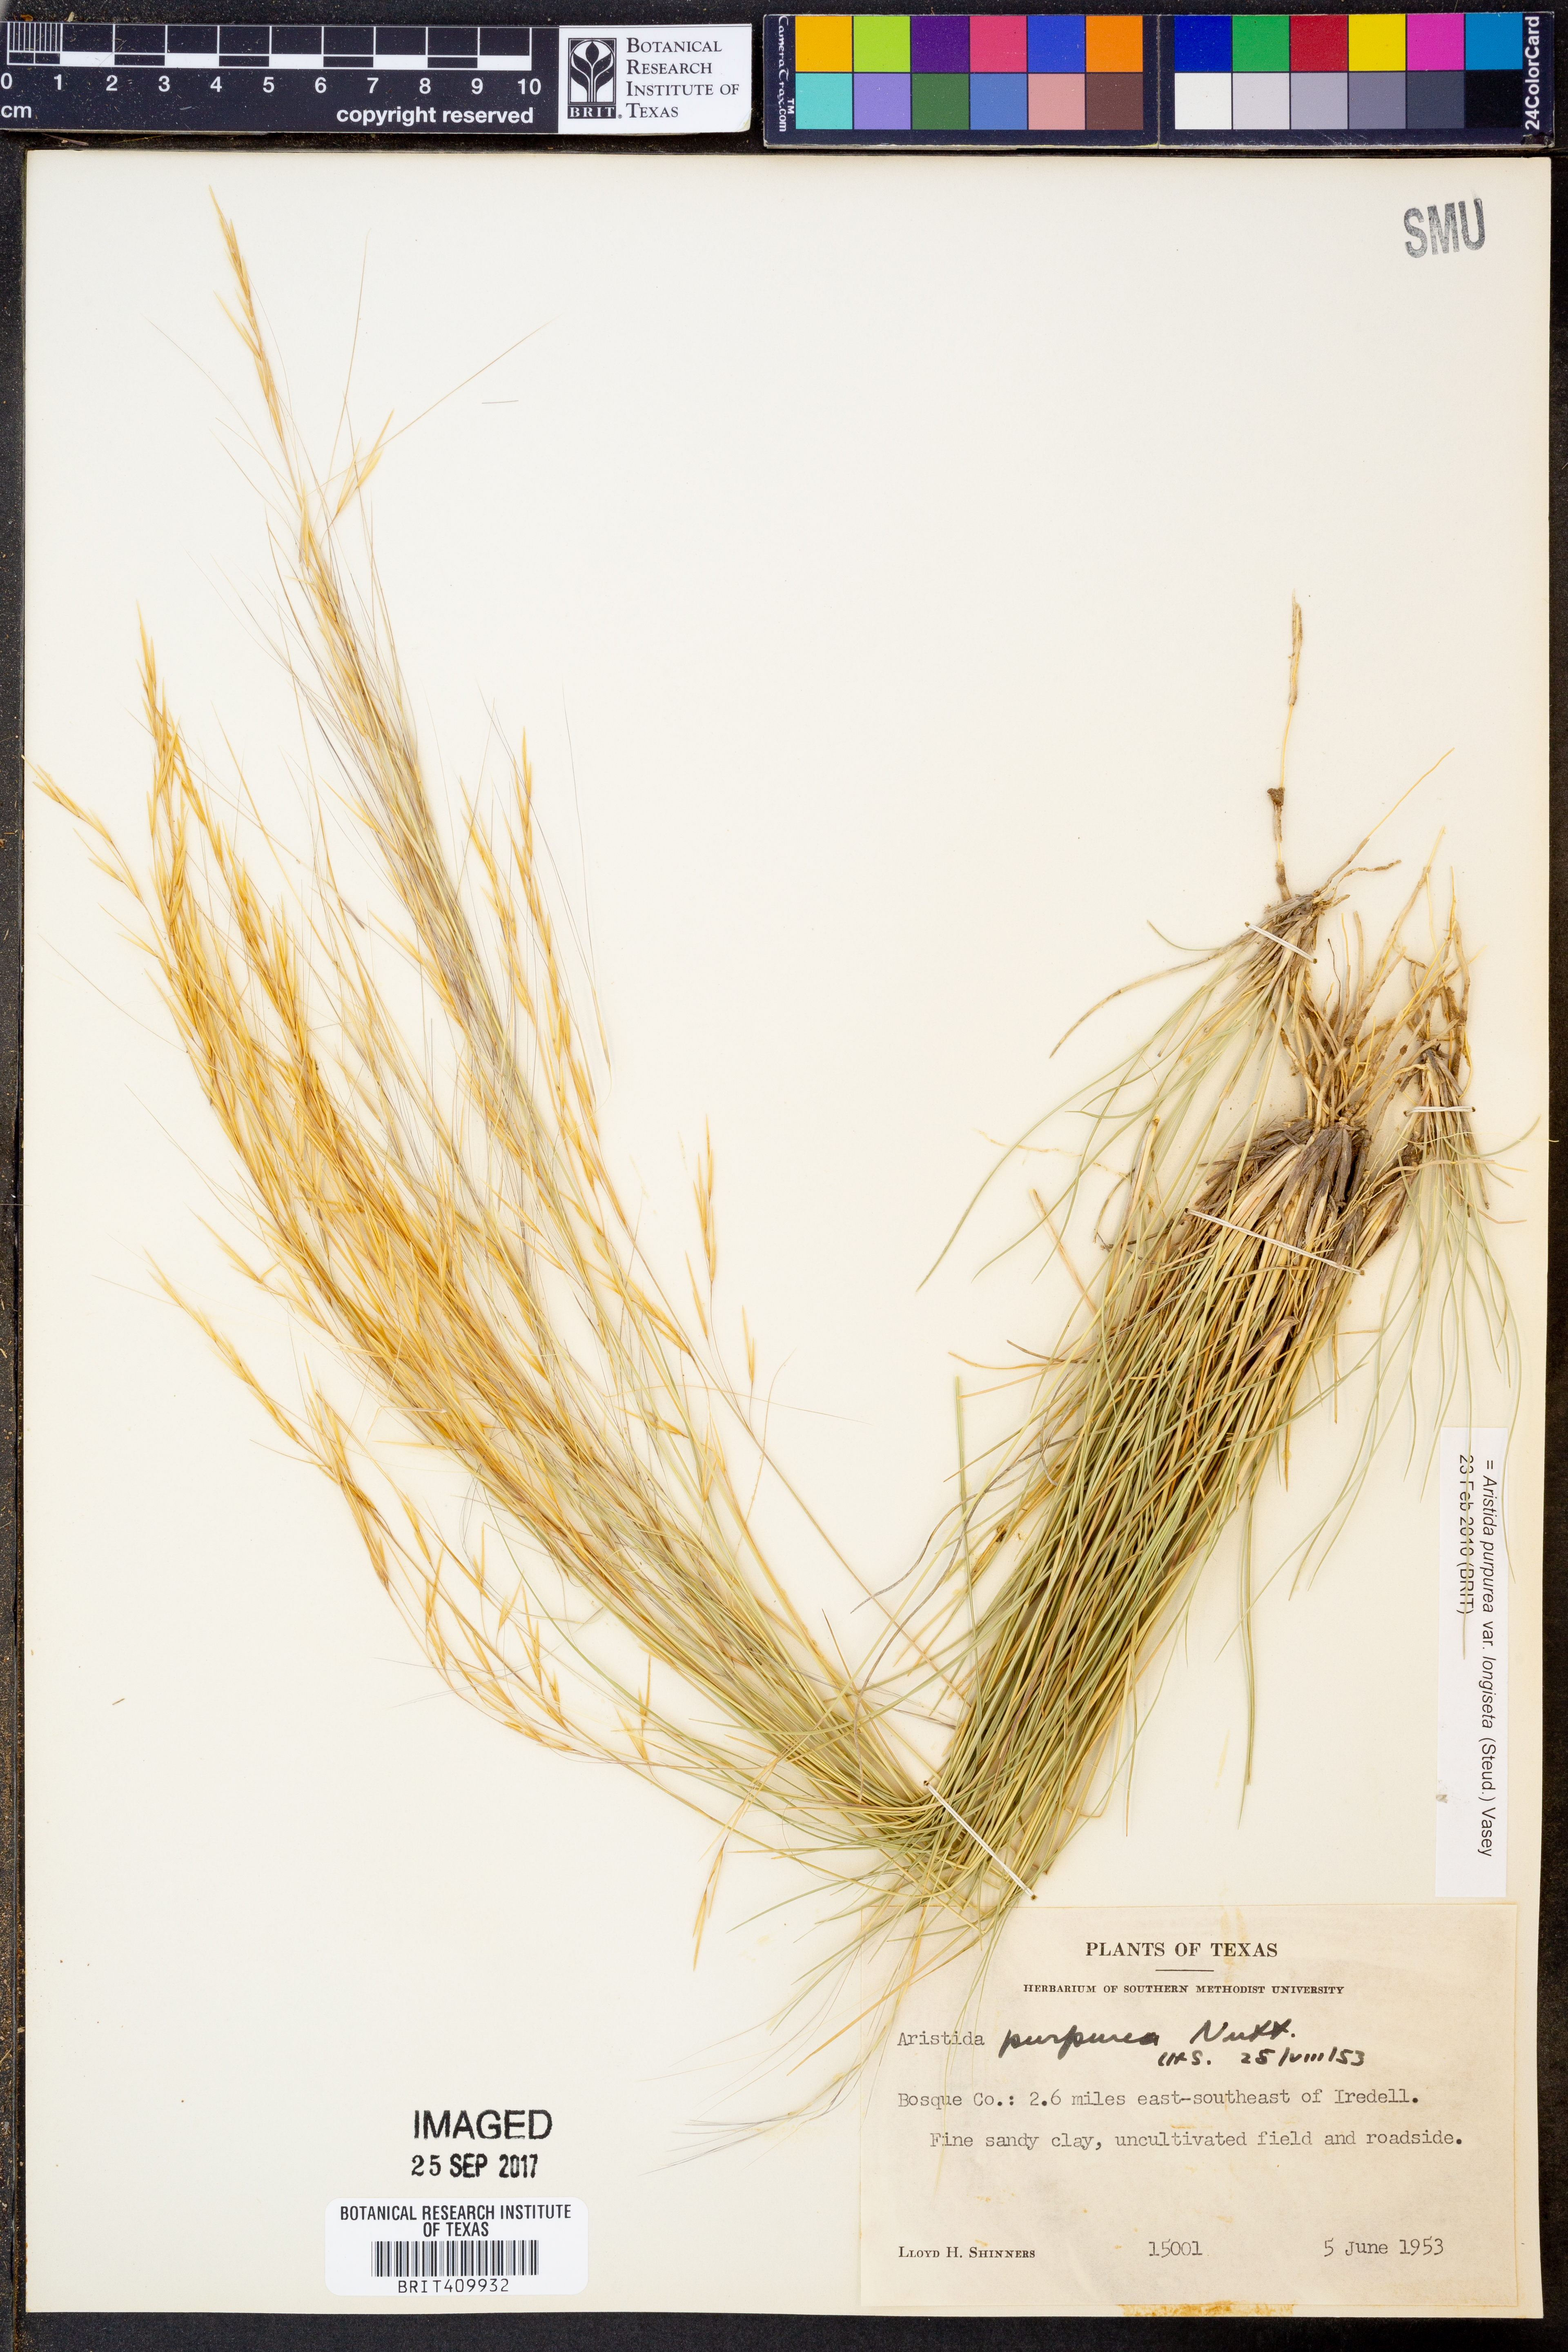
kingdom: Plantae
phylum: Tracheophyta
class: Liliopsida
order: Poales
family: Poaceae
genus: Aristida
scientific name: Aristida longiseta
